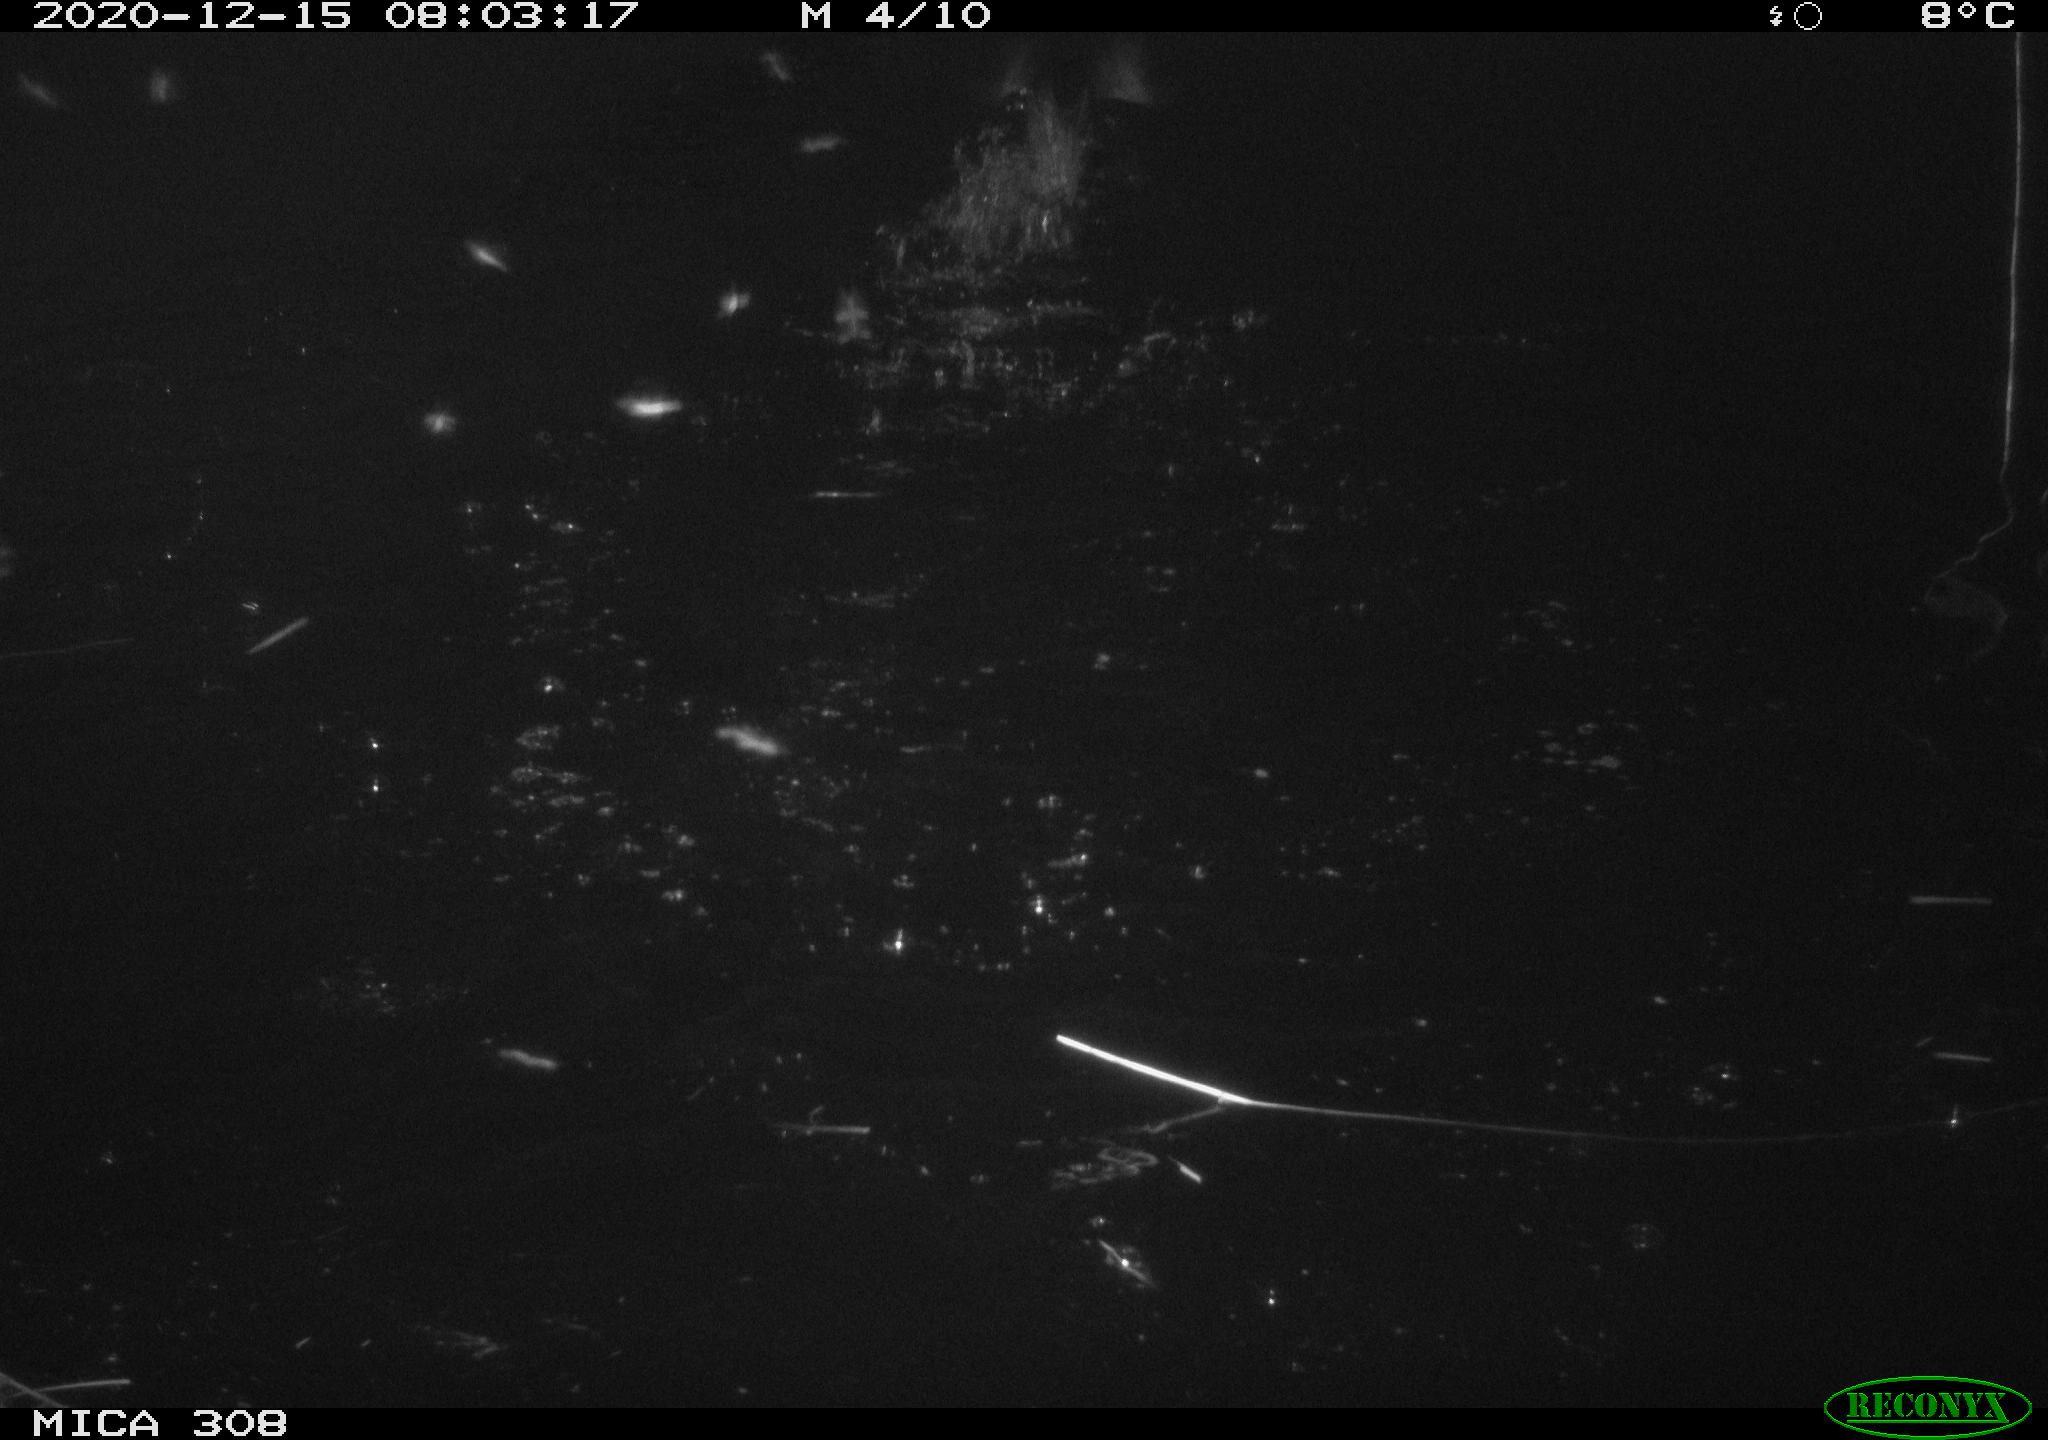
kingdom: Animalia
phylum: Chordata
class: Aves
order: Gruiformes
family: Rallidae
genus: Fulica
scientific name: Fulica atra
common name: Eurasian coot
